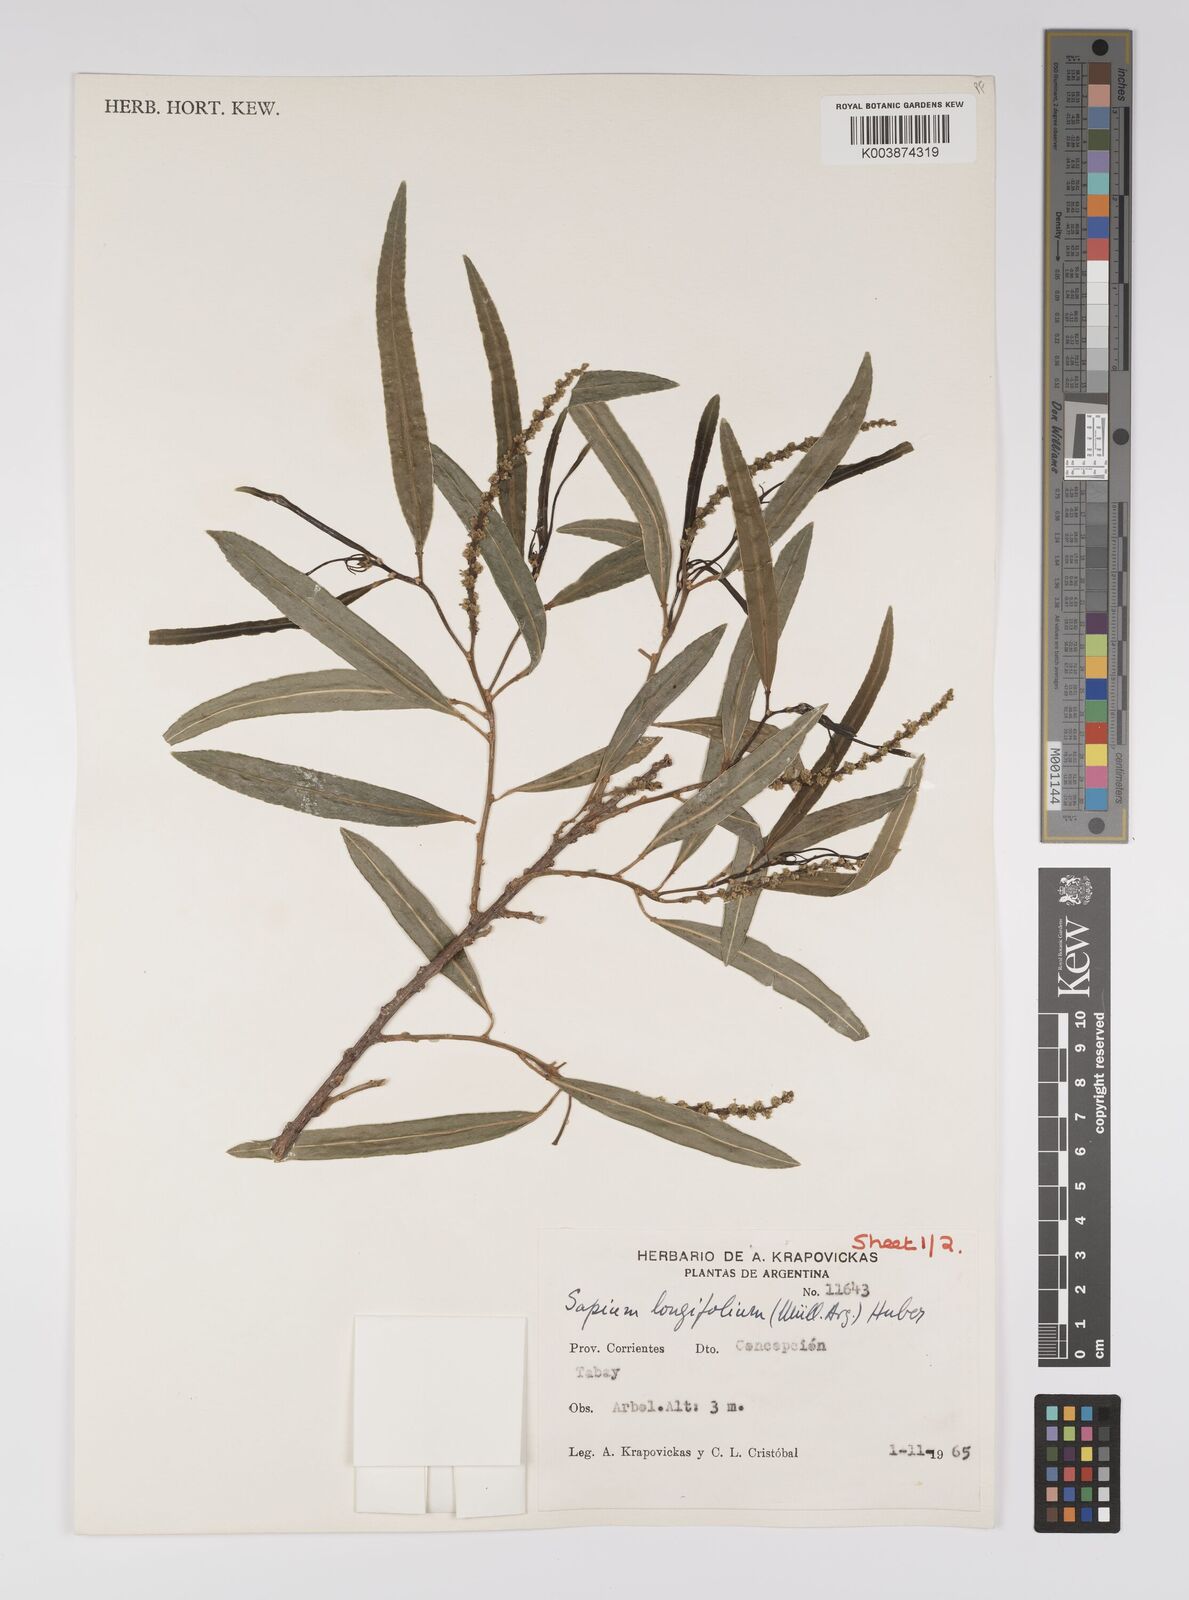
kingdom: Plantae
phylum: Tracheophyta
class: Magnoliopsida
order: Malpighiales
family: Euphorbiaceae
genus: Sapium
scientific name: Sapium haematospermum
